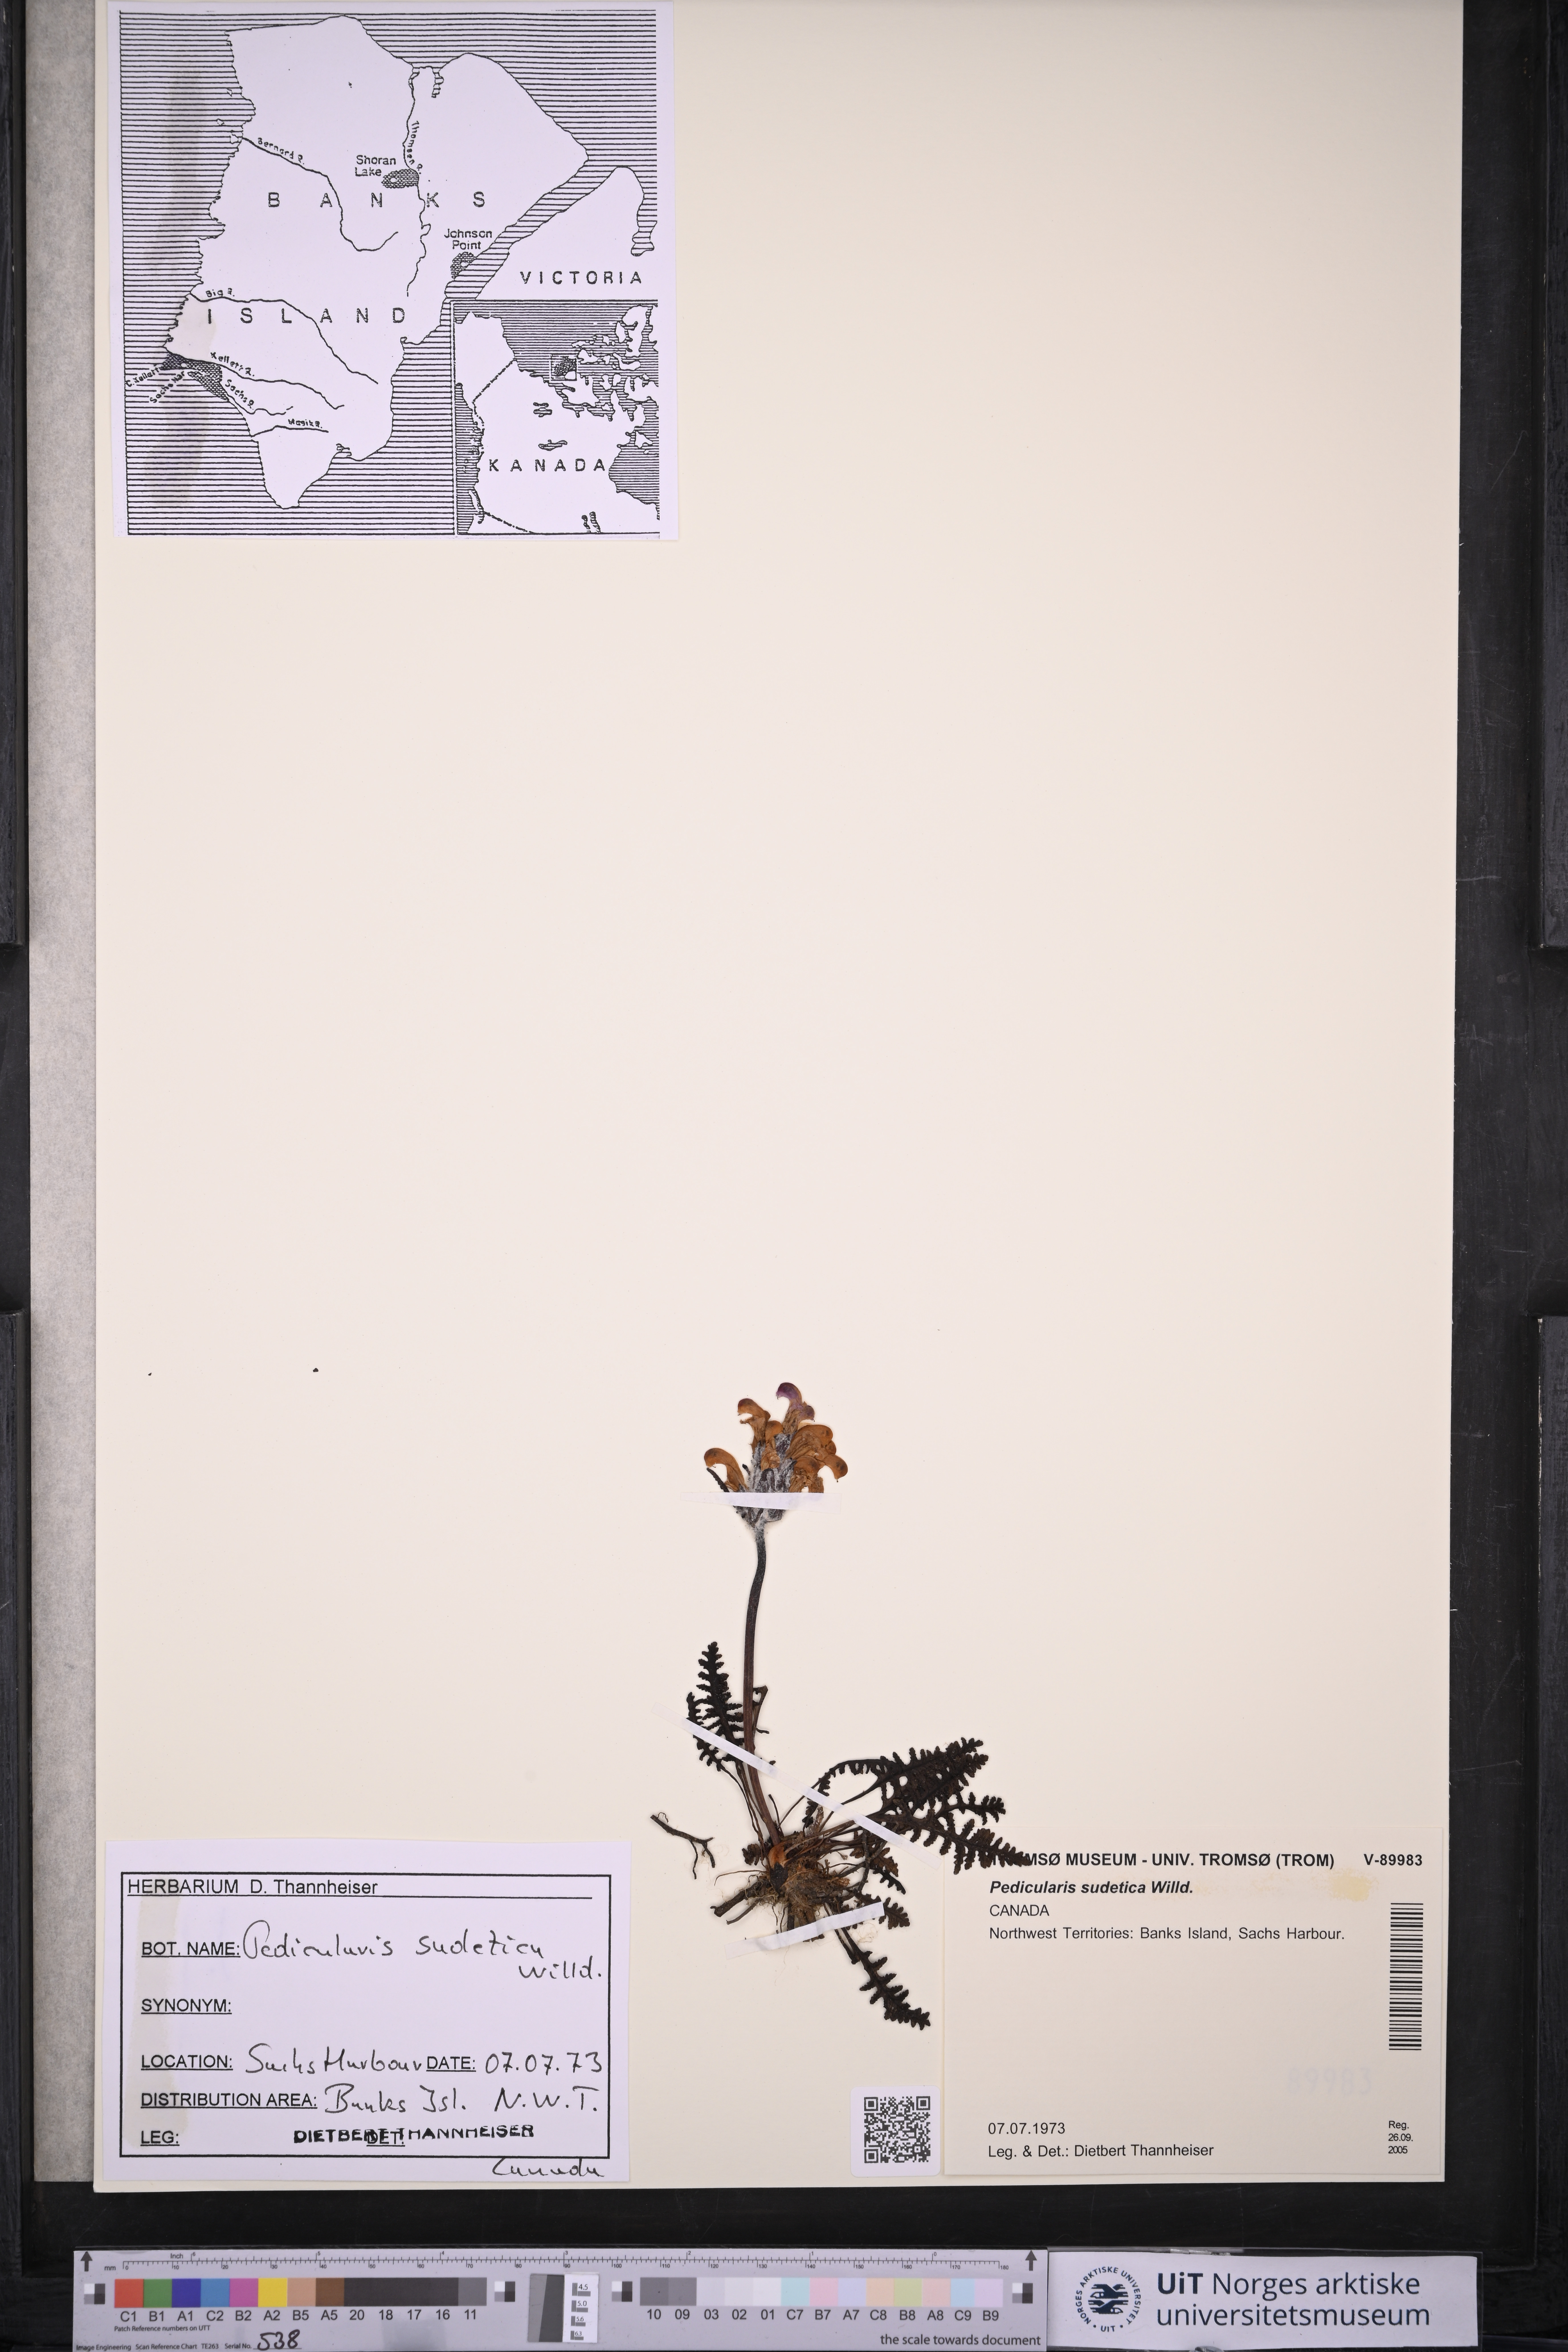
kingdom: Plantae
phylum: Tracheophyta
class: Magnoliopsida
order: Lamiales
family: Orobanchaceae
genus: Pedicularis
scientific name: Pedicularis sudetica
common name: Sudeten lousewort
